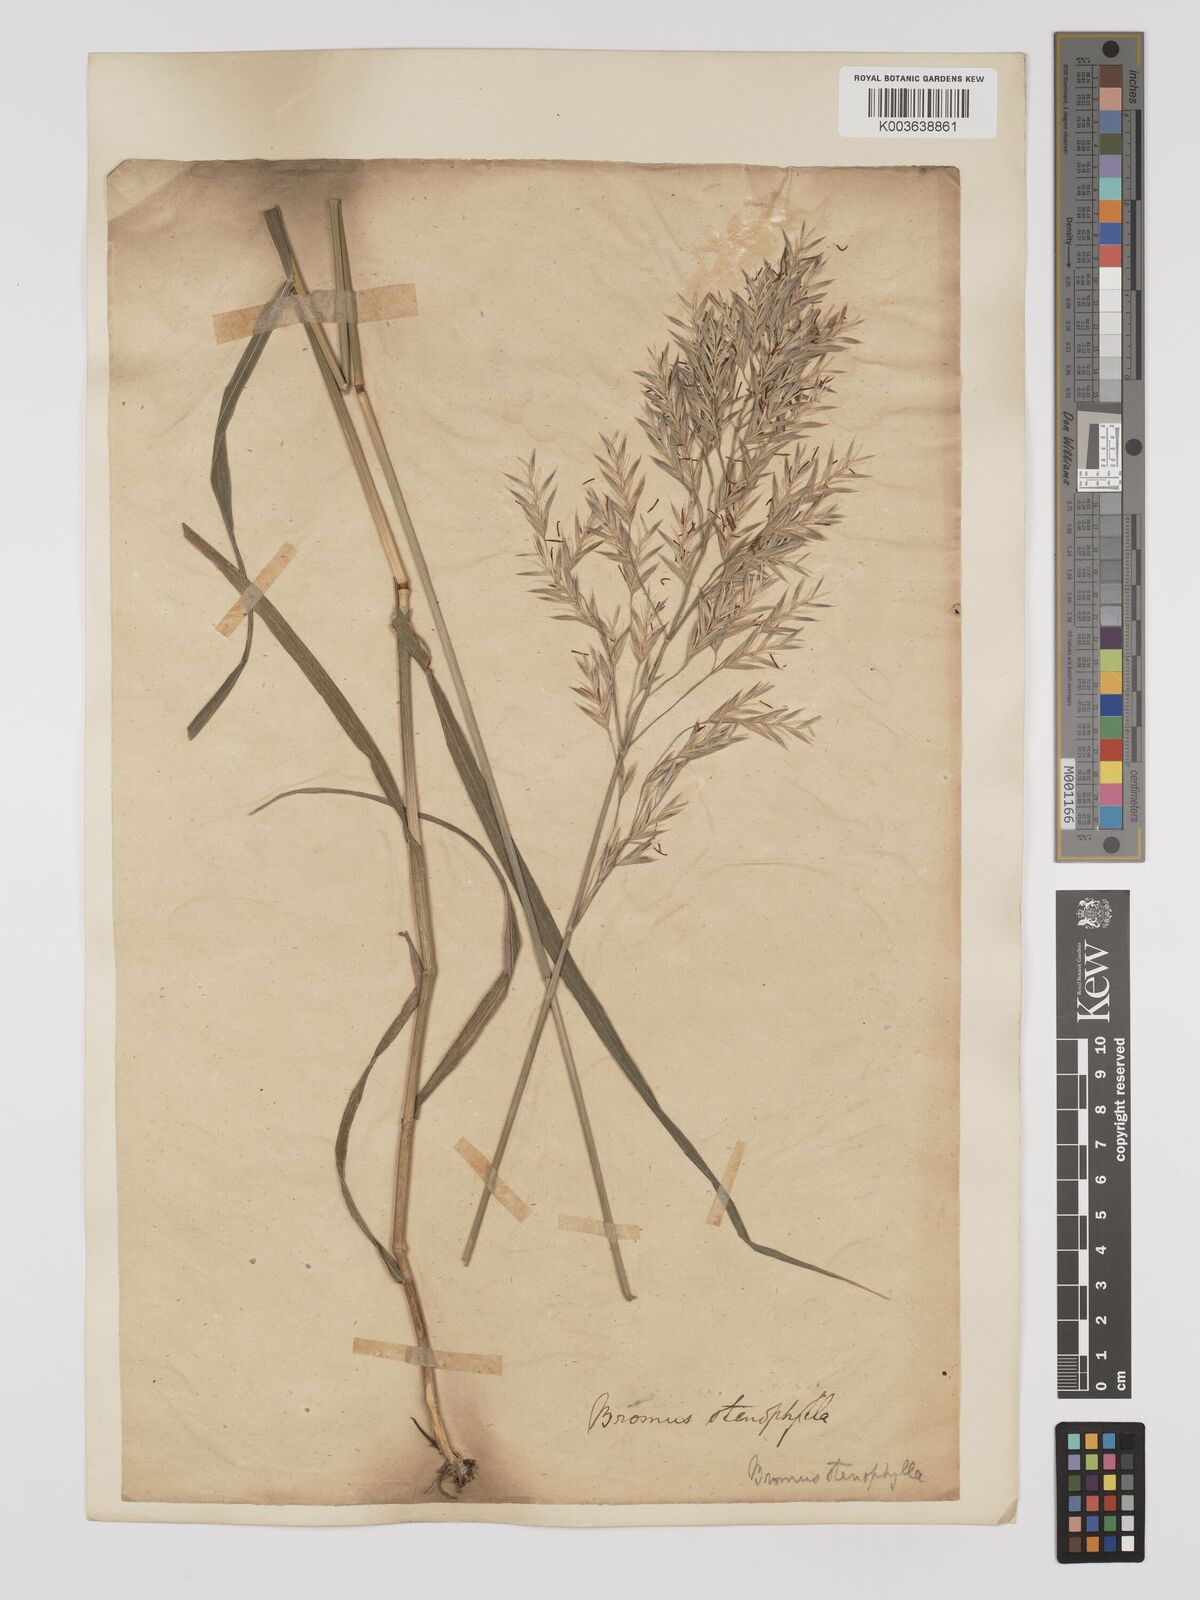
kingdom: Plantae
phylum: Tracheophyta
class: Liliopsida
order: Poales
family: Poaceae
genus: Bromus
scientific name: Bromus inermis
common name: Smooth brome
